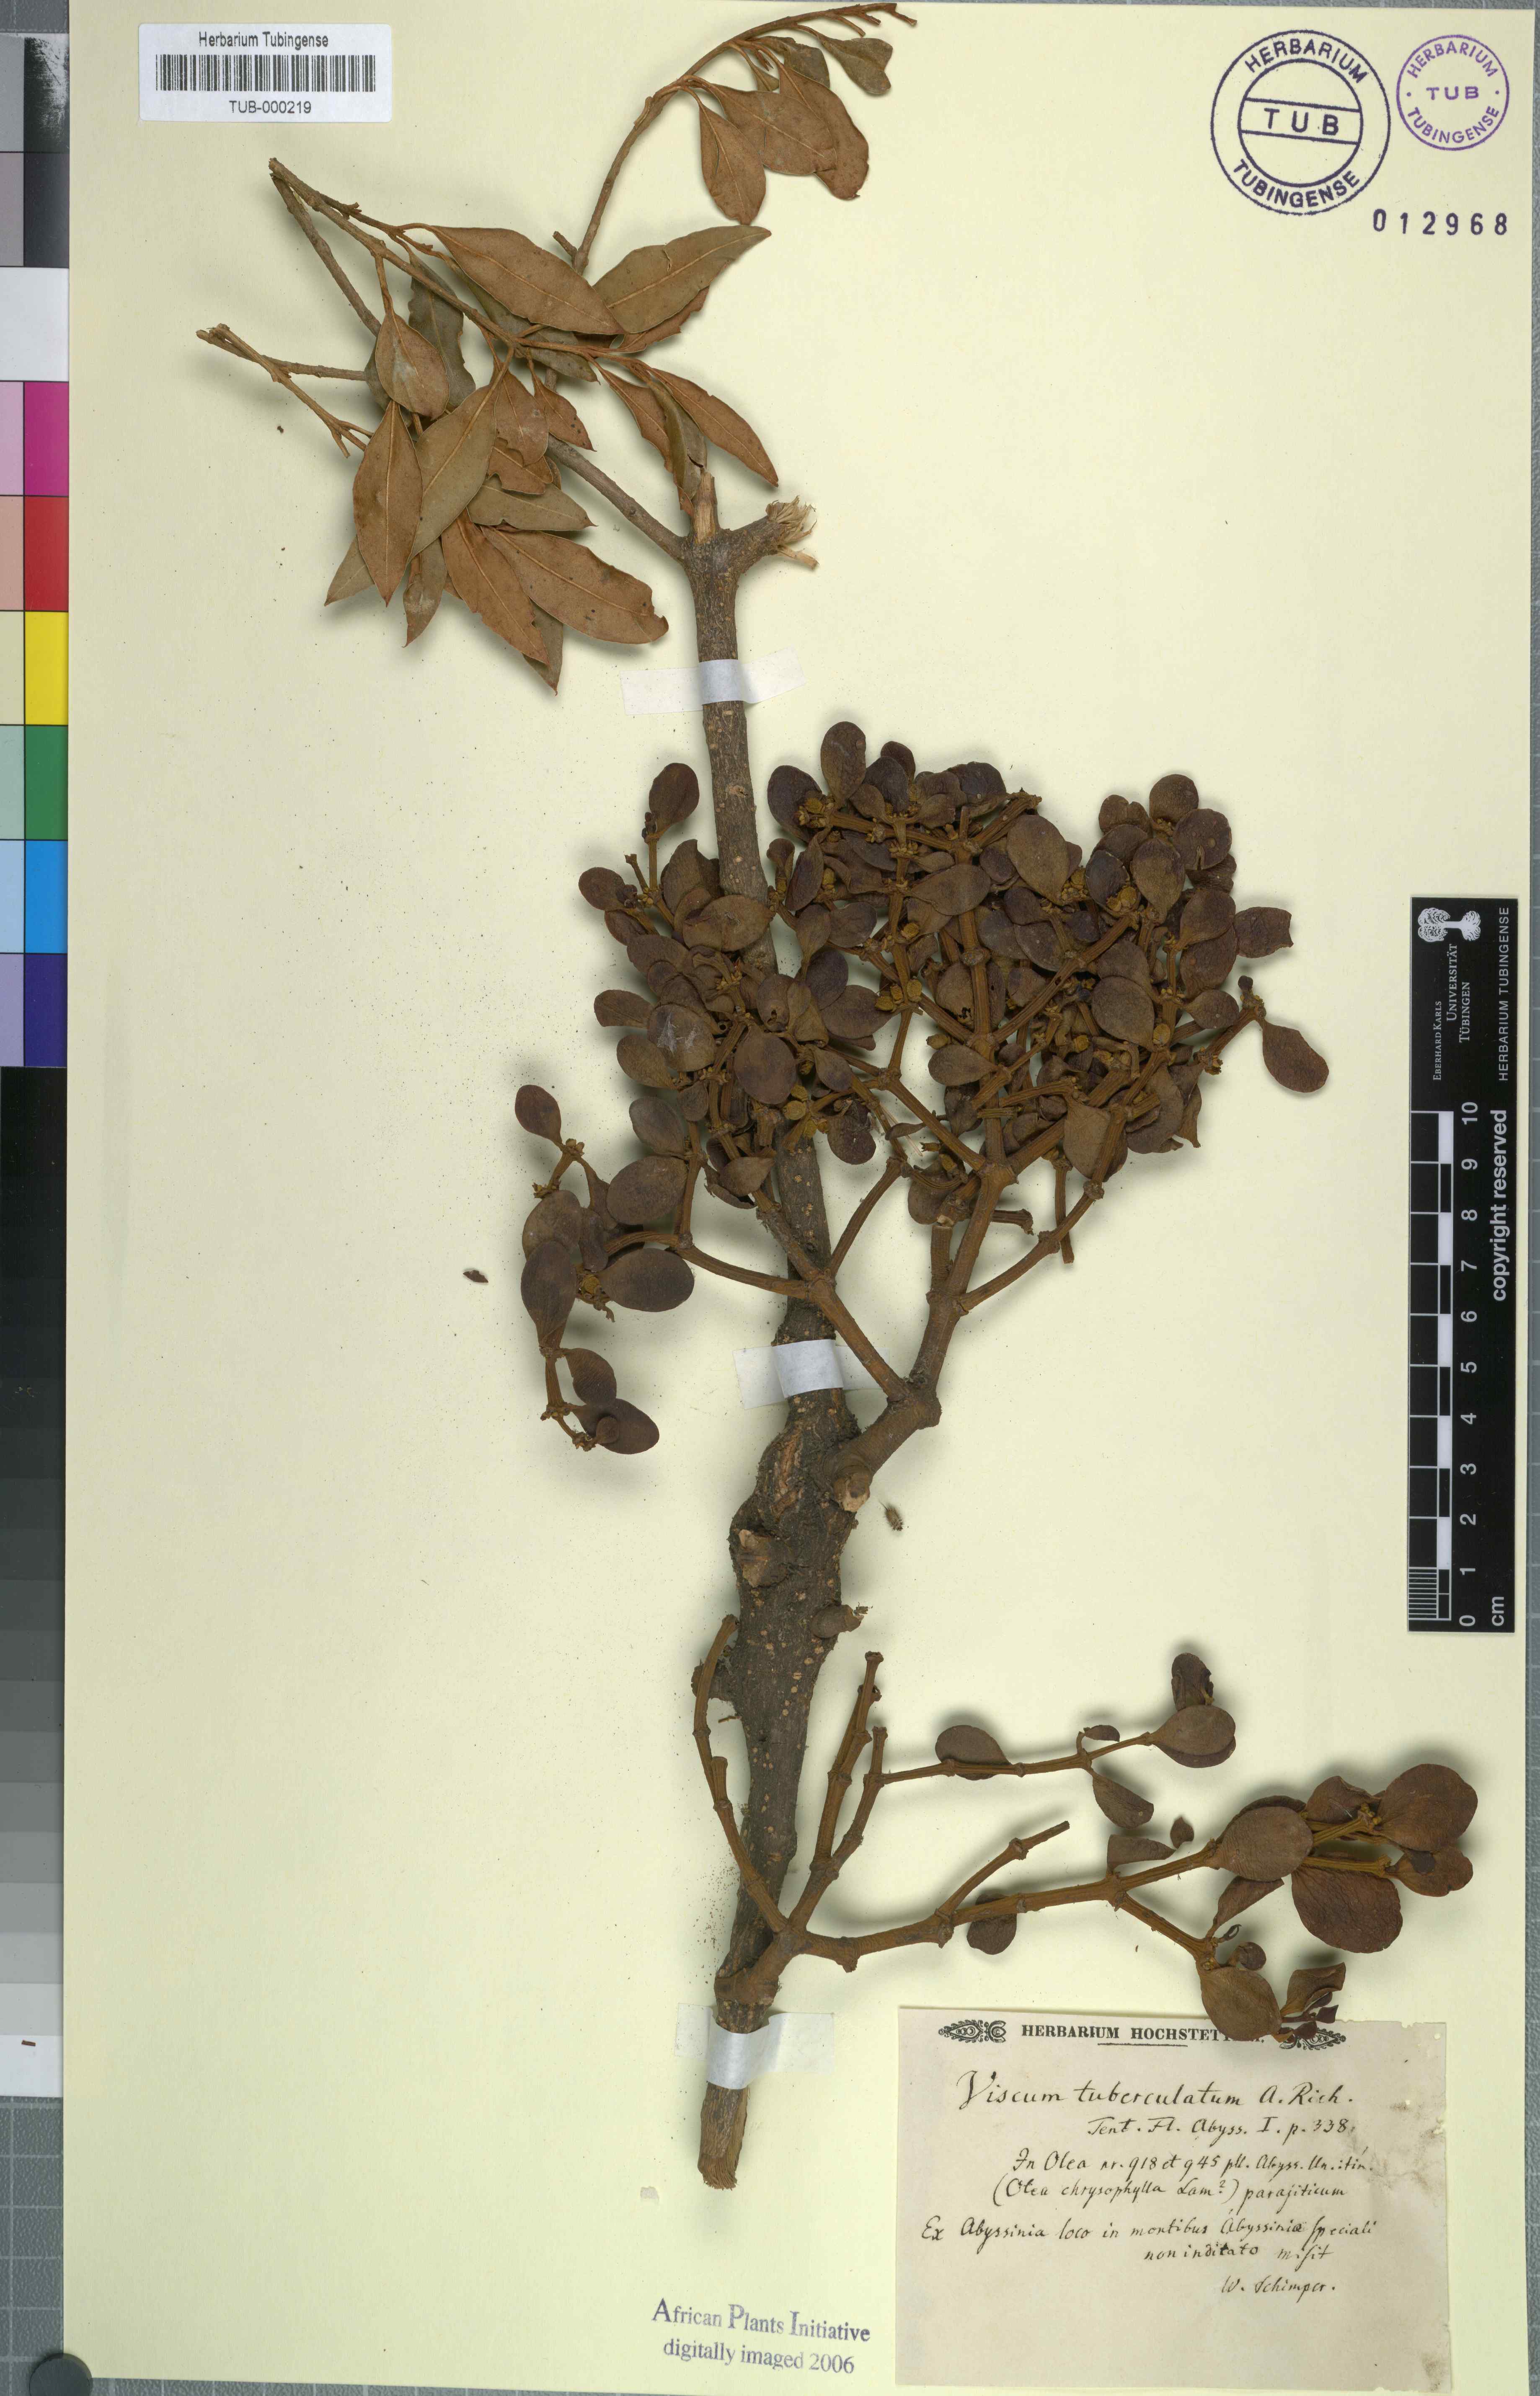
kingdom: Plantae
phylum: Tracheophyta
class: Magnoliopsida
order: Santalales
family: Viscaceae
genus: Viscum
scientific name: Viscum tuberculatum
